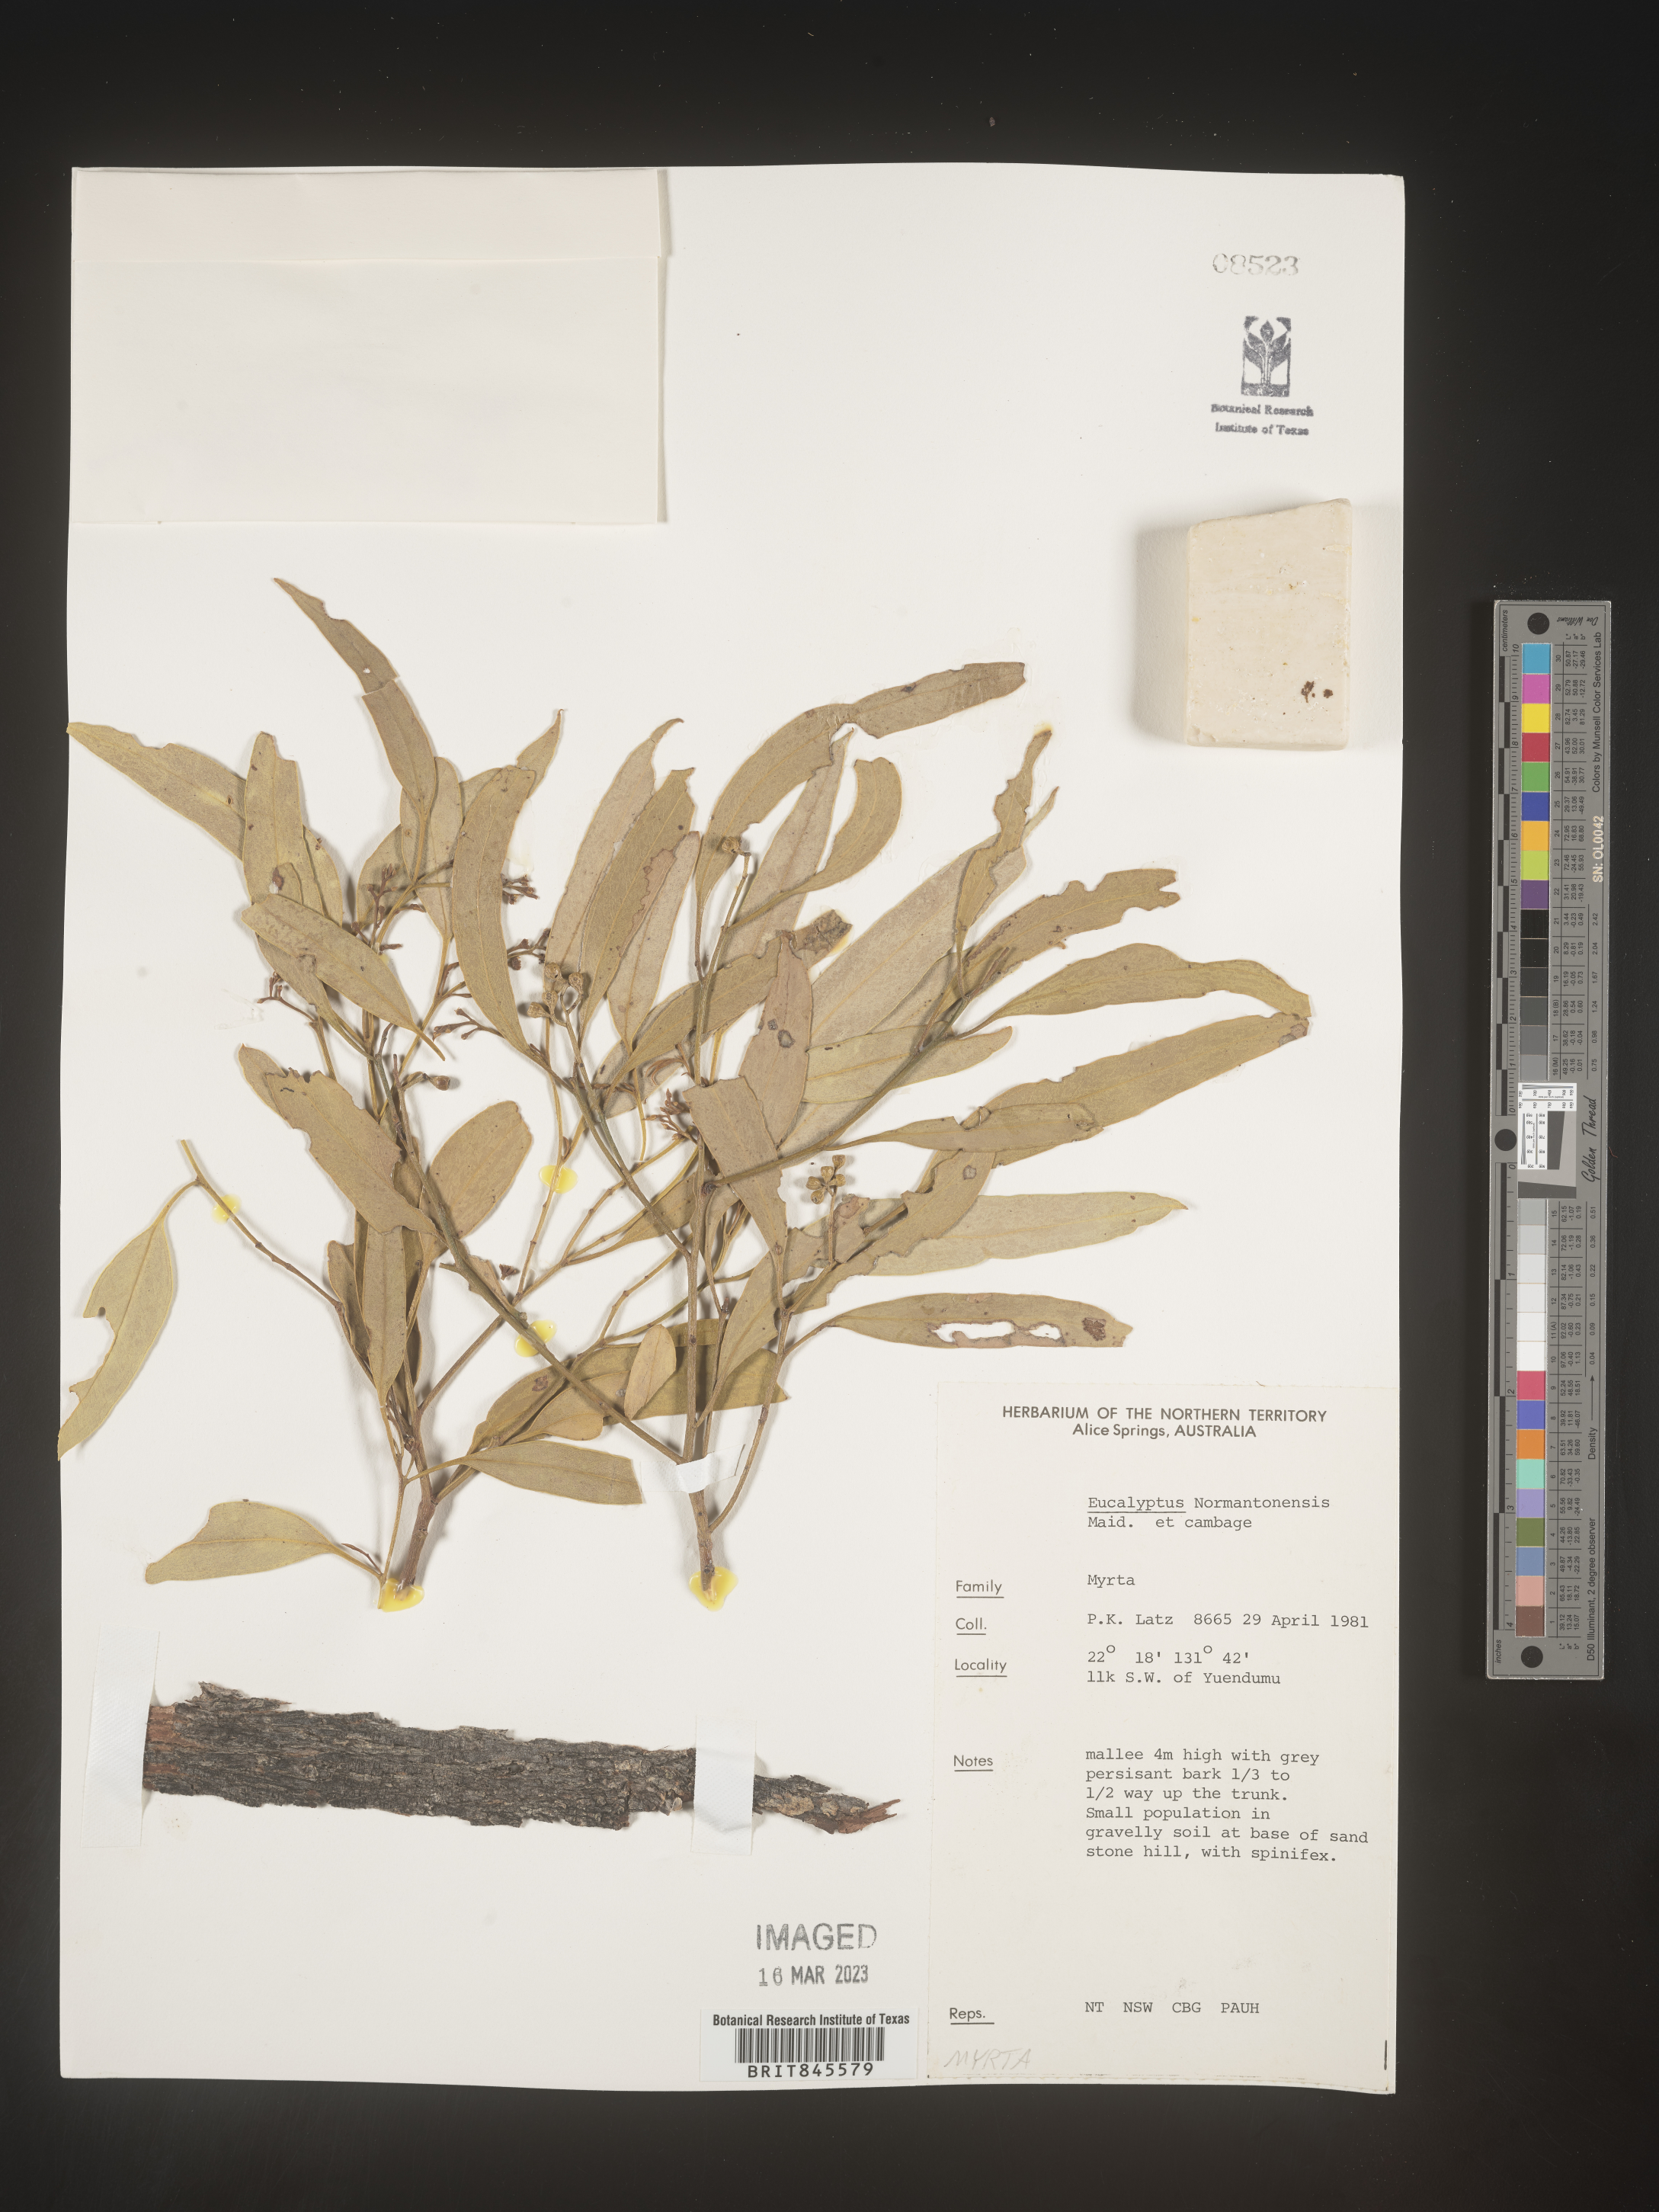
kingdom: Plantae
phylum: Tracheophyta
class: Magnoliopsida
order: Myrtales
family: Myrtaceae
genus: Eucalyptus
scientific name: Eucalyptus
